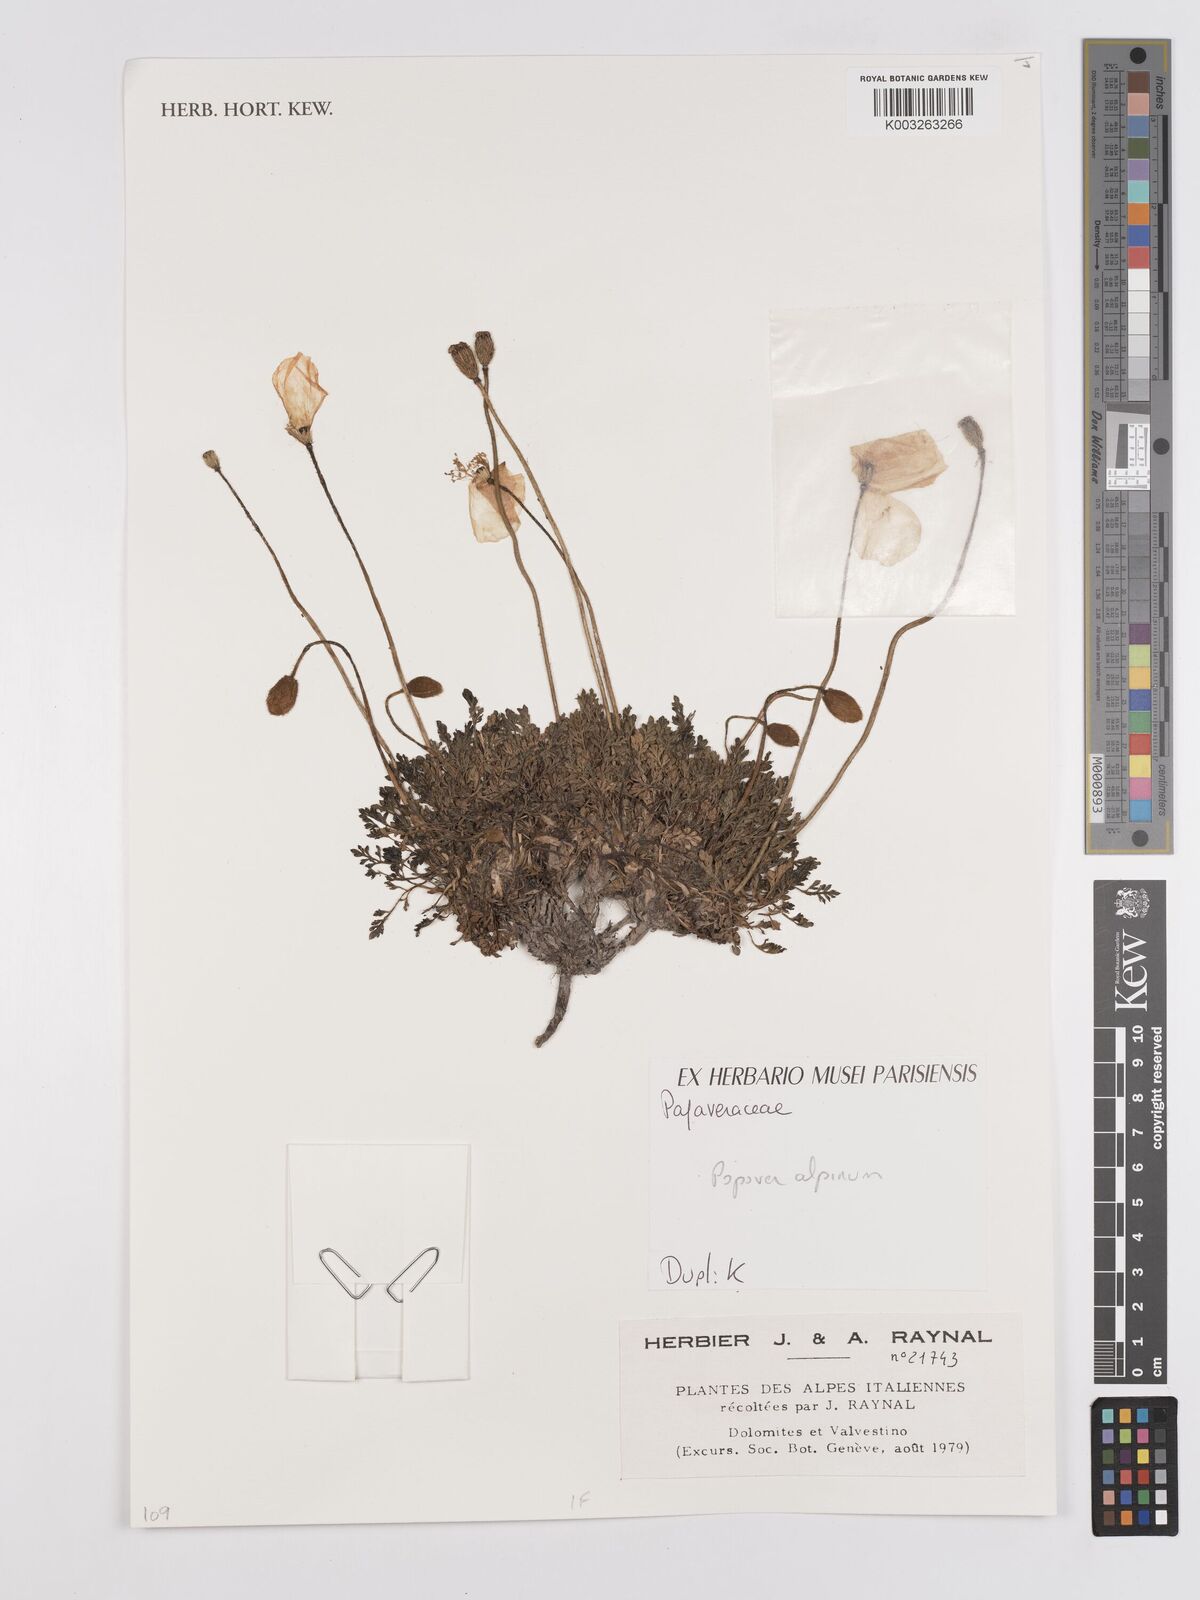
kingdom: Plantae
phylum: Tracheophyta
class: Magnoliopsida
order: Ranunculales
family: Papaveraceae
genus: Papaver
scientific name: Papaver alpinum
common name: Austrian poppy
